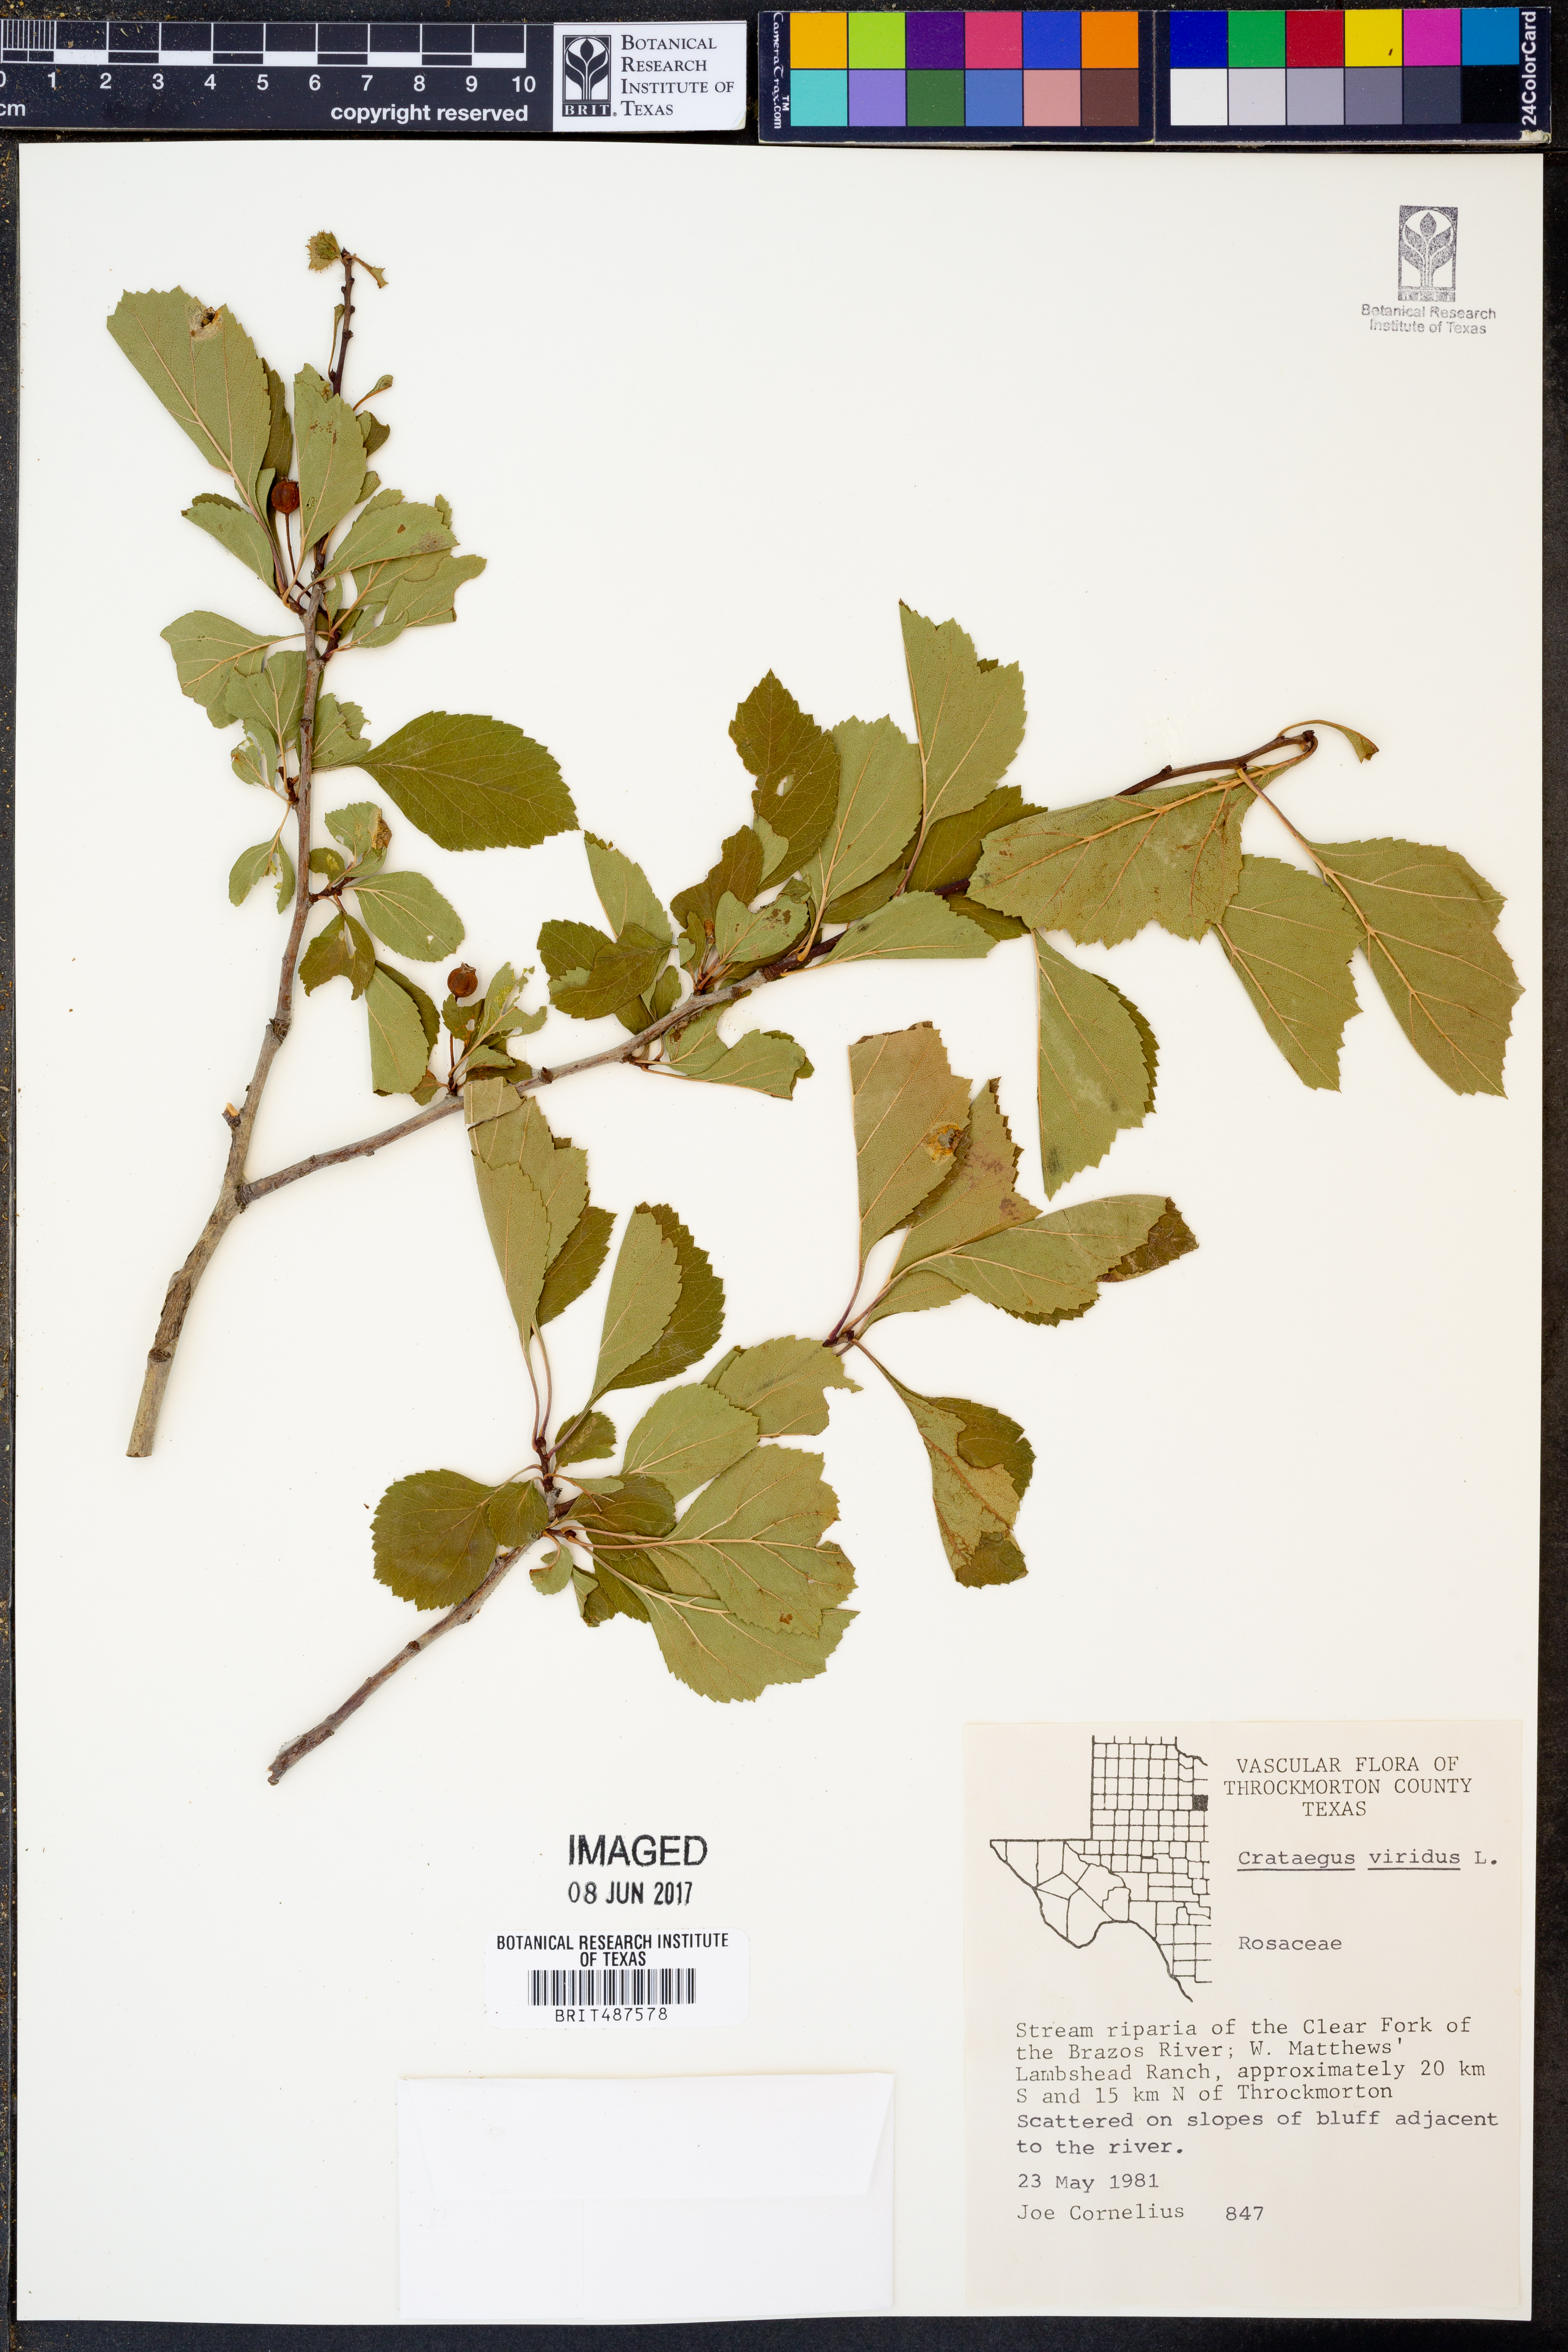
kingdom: Plantae
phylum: Tracheophyta
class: Magnoliopsida
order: Rosales
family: Rosaceae
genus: Crataegus
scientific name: Crataegus viridis
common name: Southernthorn
